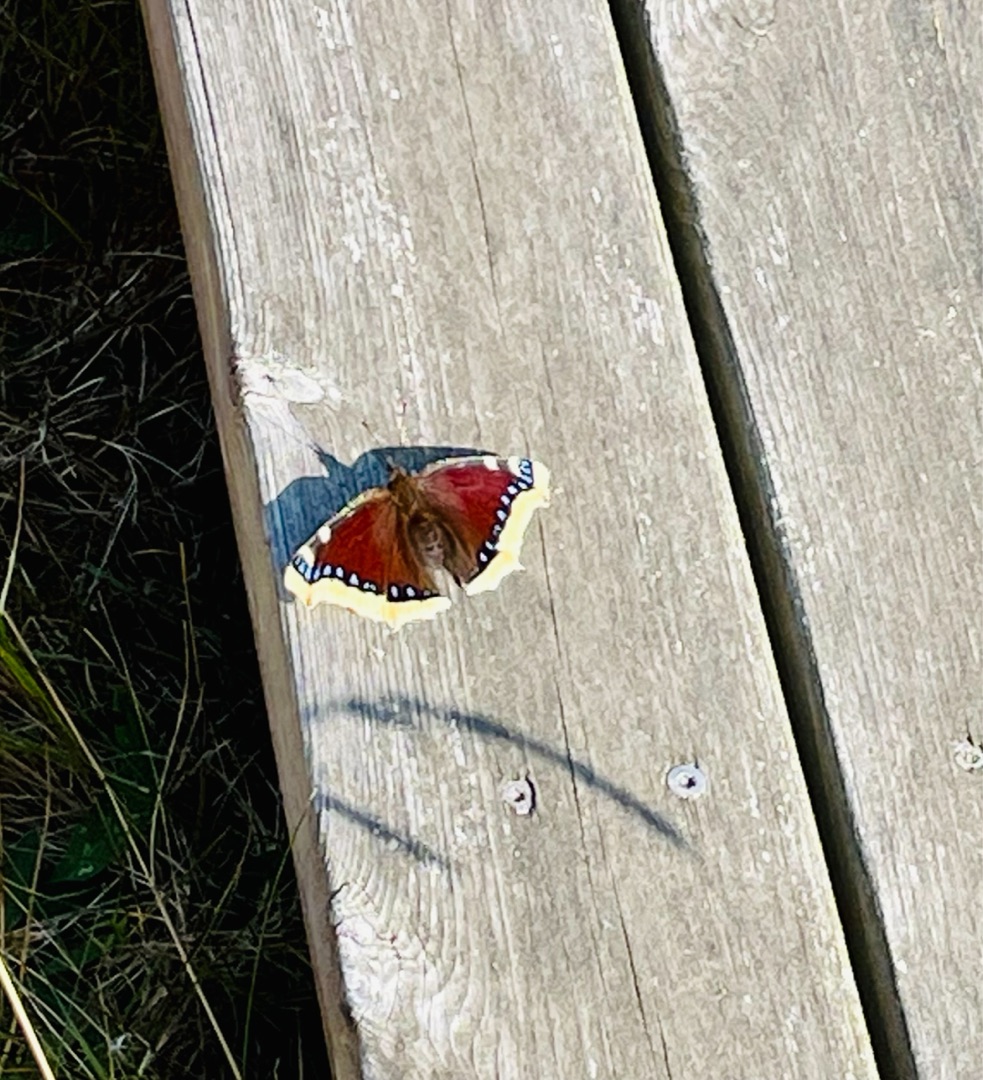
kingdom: Animalia
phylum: Arthropoda
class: Insecta
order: Lepidoptera
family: Nymphalidae
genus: Nymphalis
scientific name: Nymphalis antiopa
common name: Sørgekåbe
